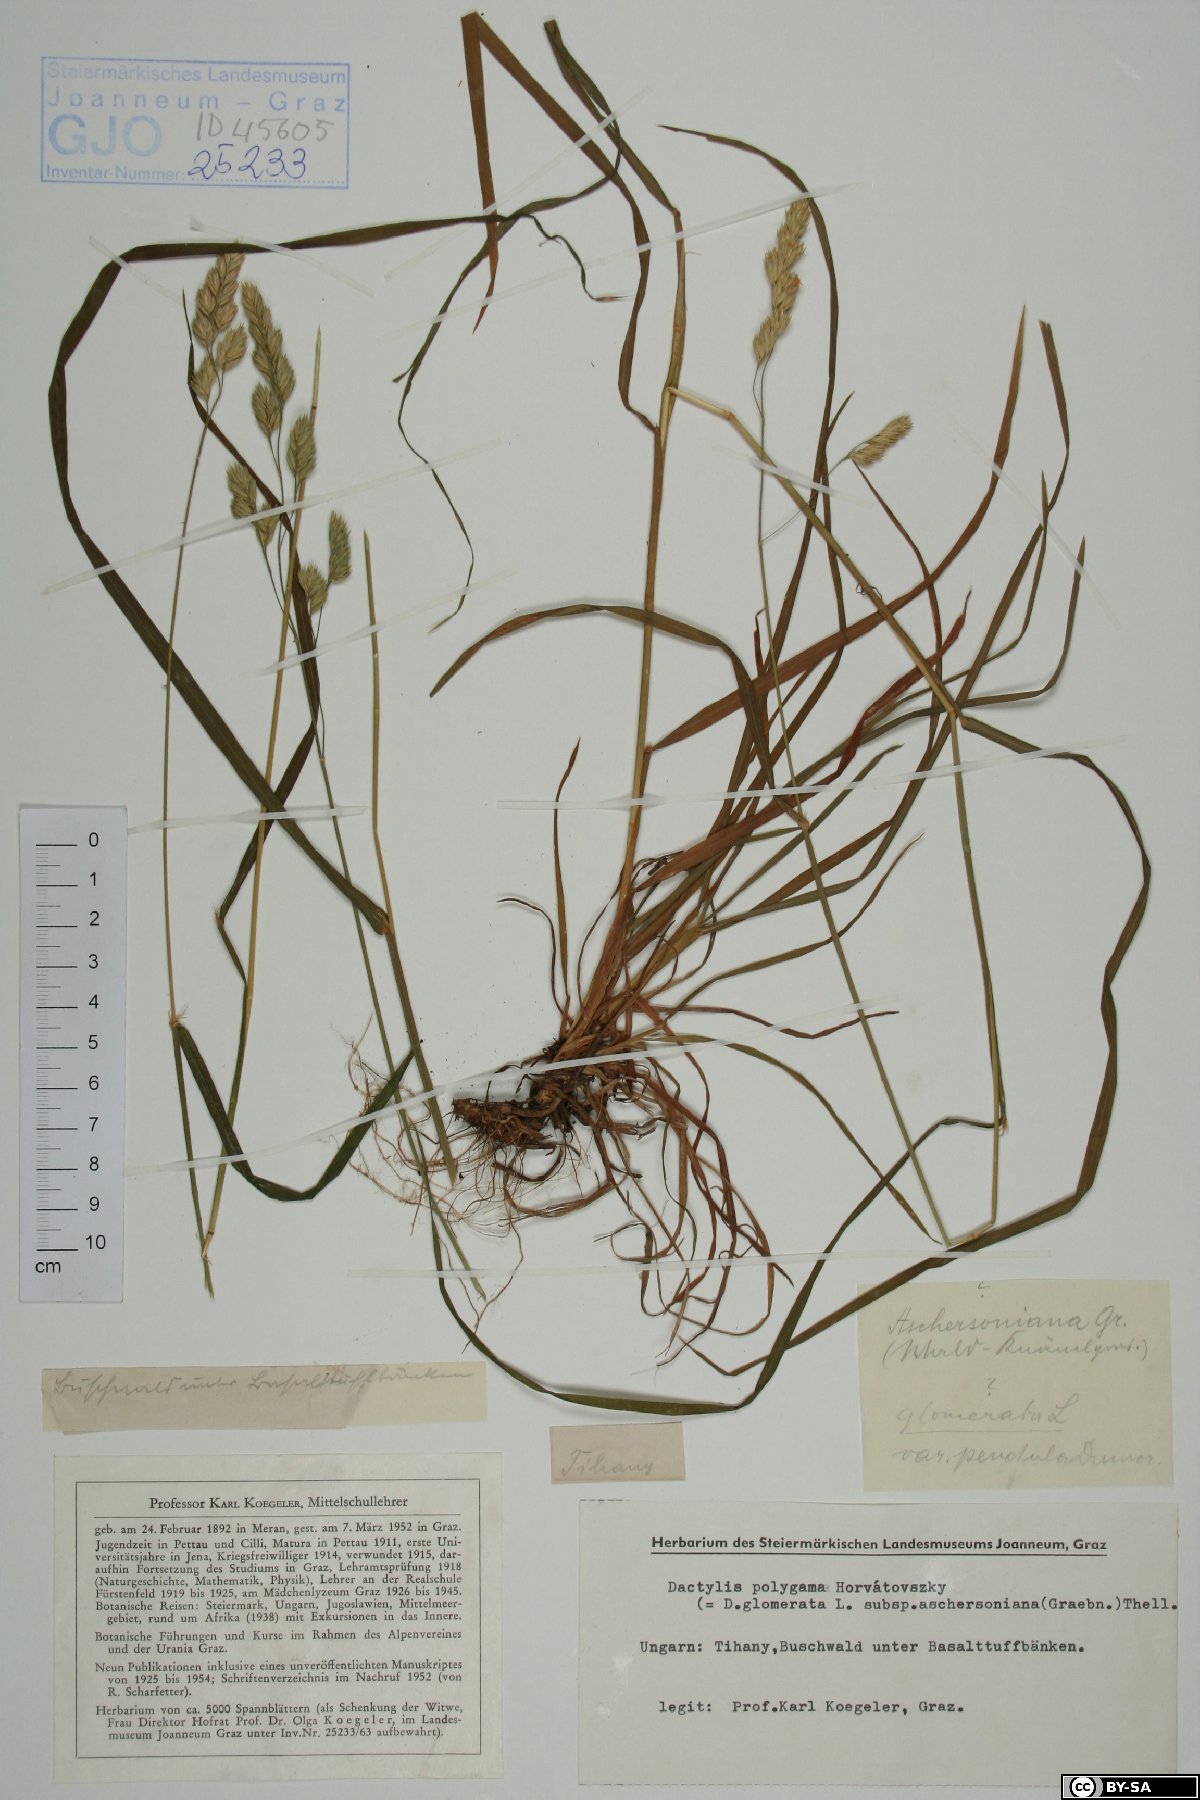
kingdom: Plantae
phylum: Tracheophyta
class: Liliopsida
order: Poales
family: Poaceae
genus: Dactylis
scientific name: Dactylis glomerata
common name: Orchardgrass
